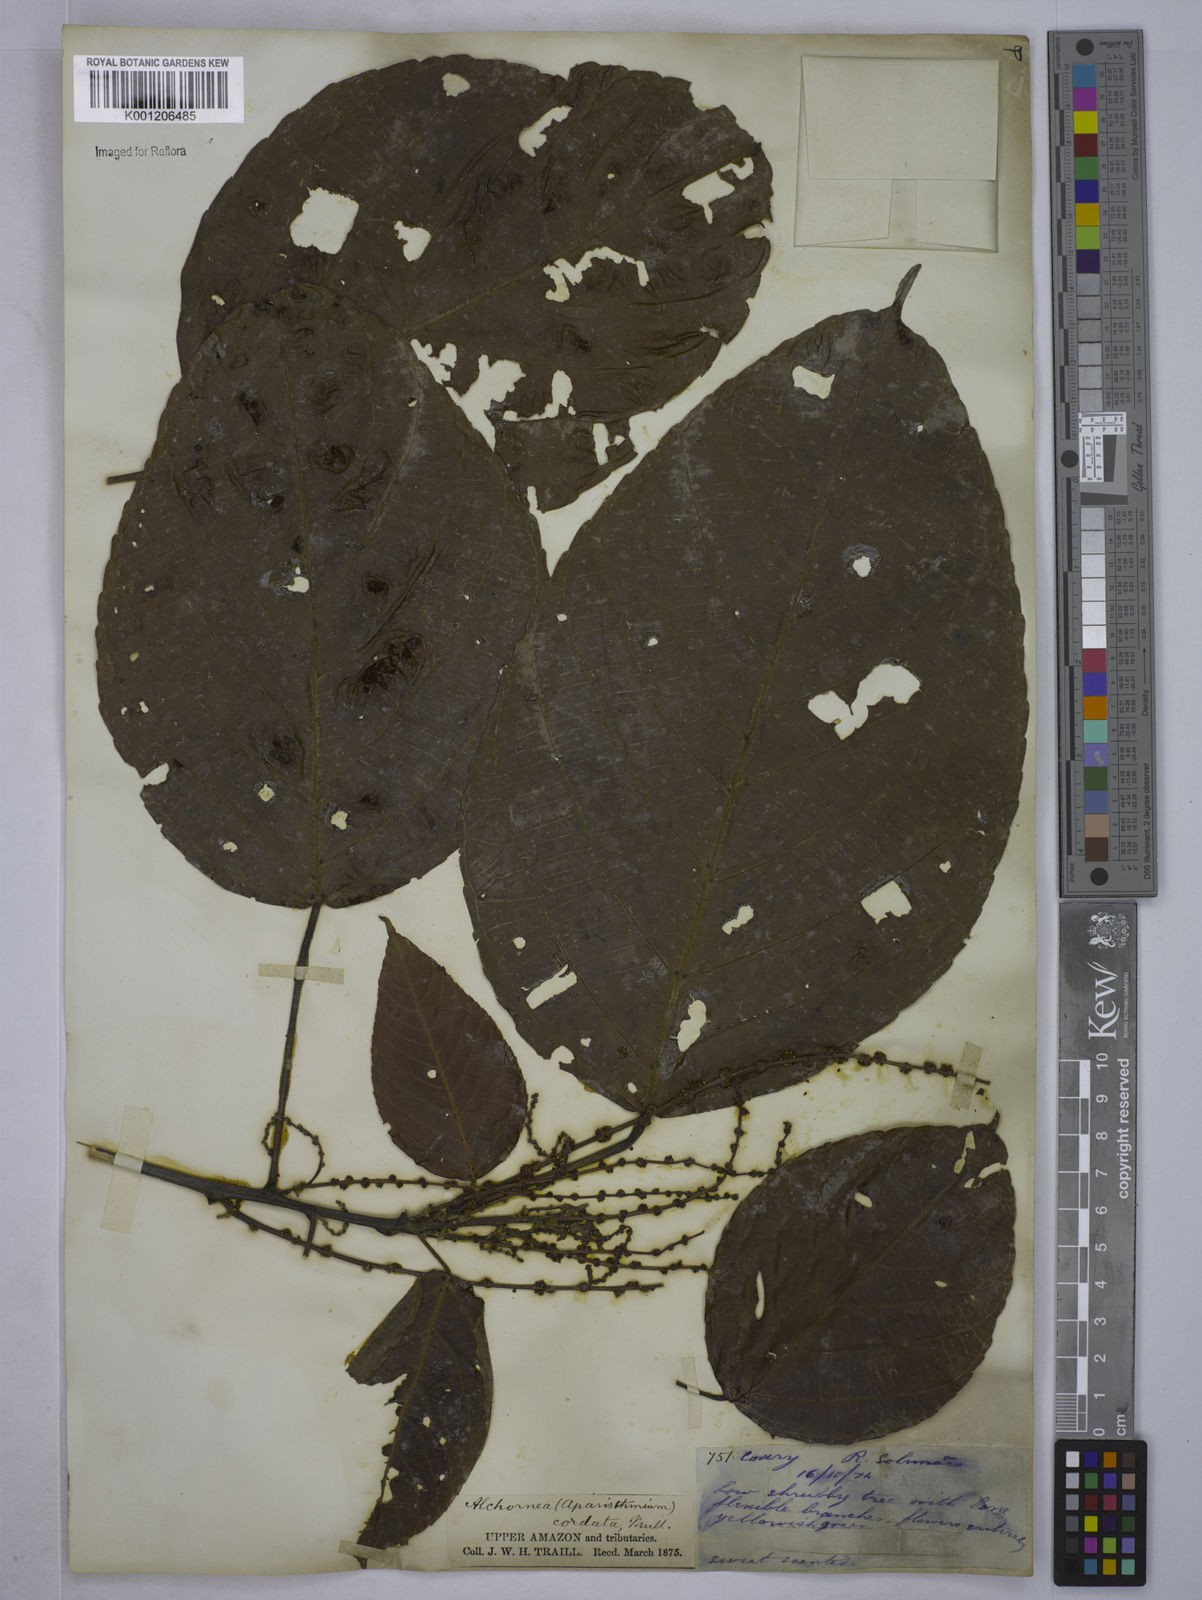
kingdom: Plantae
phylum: Tracheophyta
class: Magnoliopsida
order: Malpighiales
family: Euphorbiaceae
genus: Aparisthmium
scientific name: Aparisthmium cordatum
